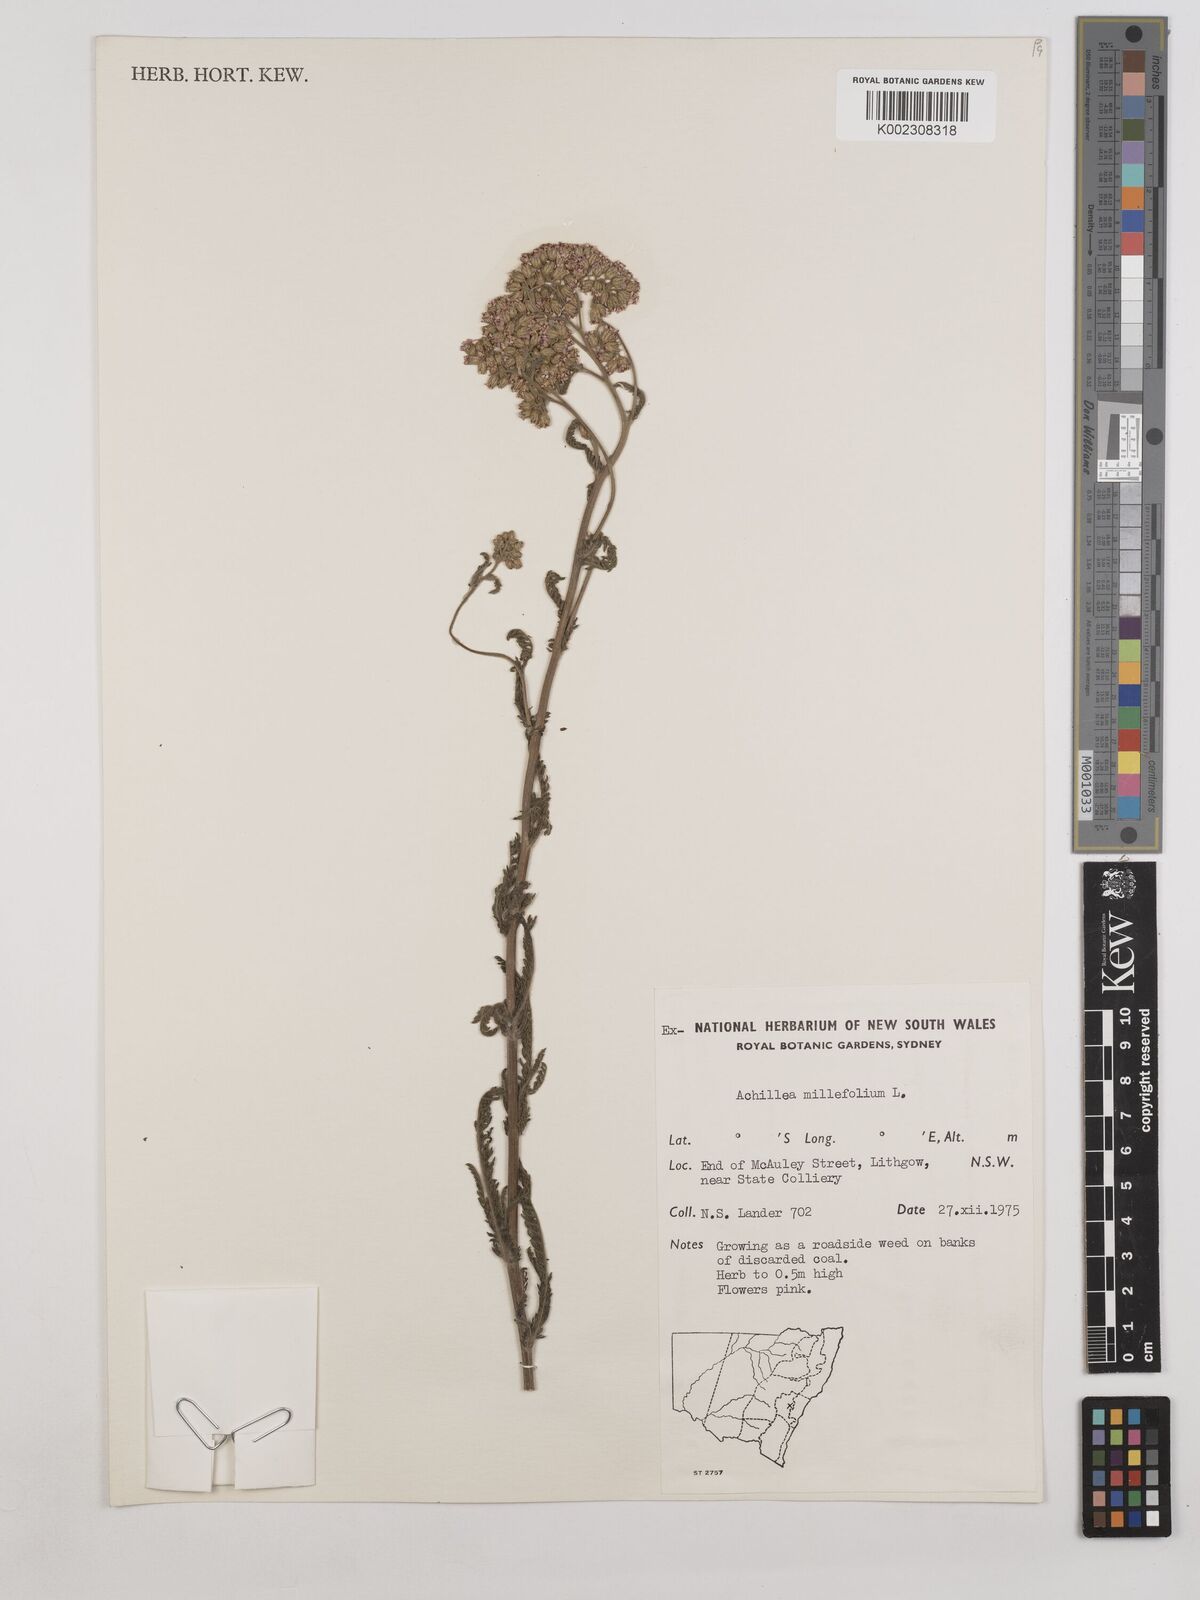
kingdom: Plantae
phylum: Tracheophyta
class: Magnoliopsida
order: Asterales
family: Asteraceae
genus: Achillea
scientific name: Achillea millefolium
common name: Yarrow
